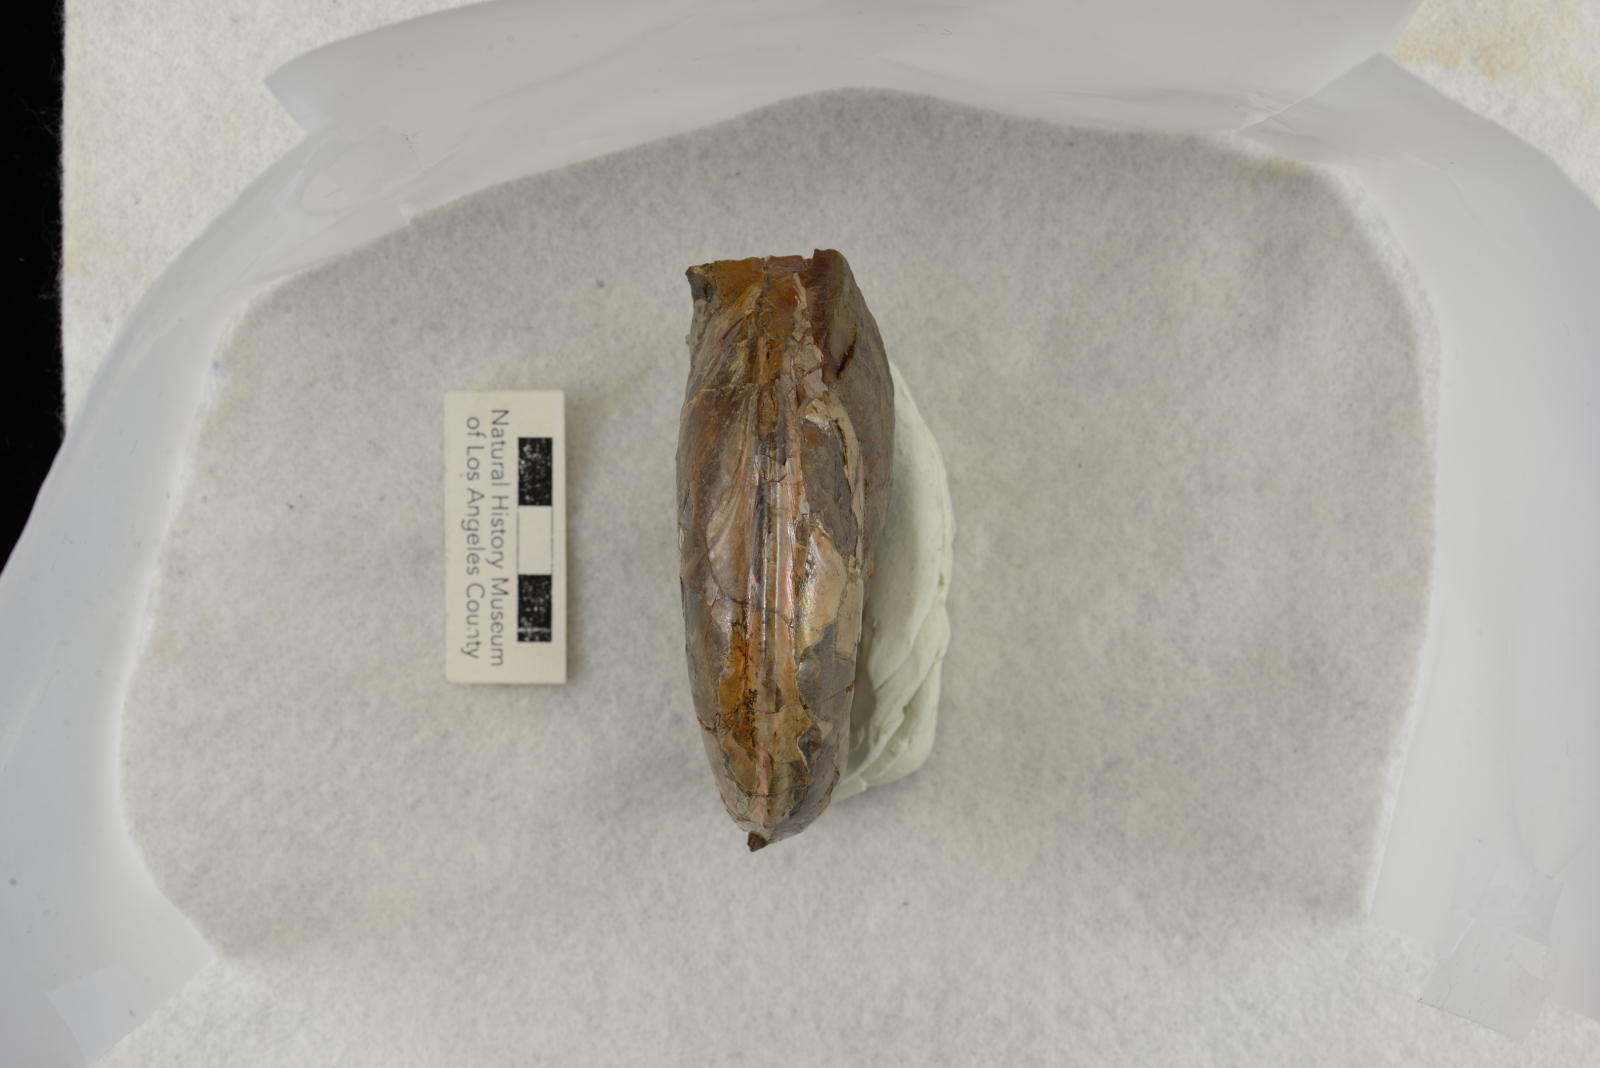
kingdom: Animalia
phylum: Mollusca
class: Cephalopoda
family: Desmoceratidae
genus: Damesites
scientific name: Damesites damesi
